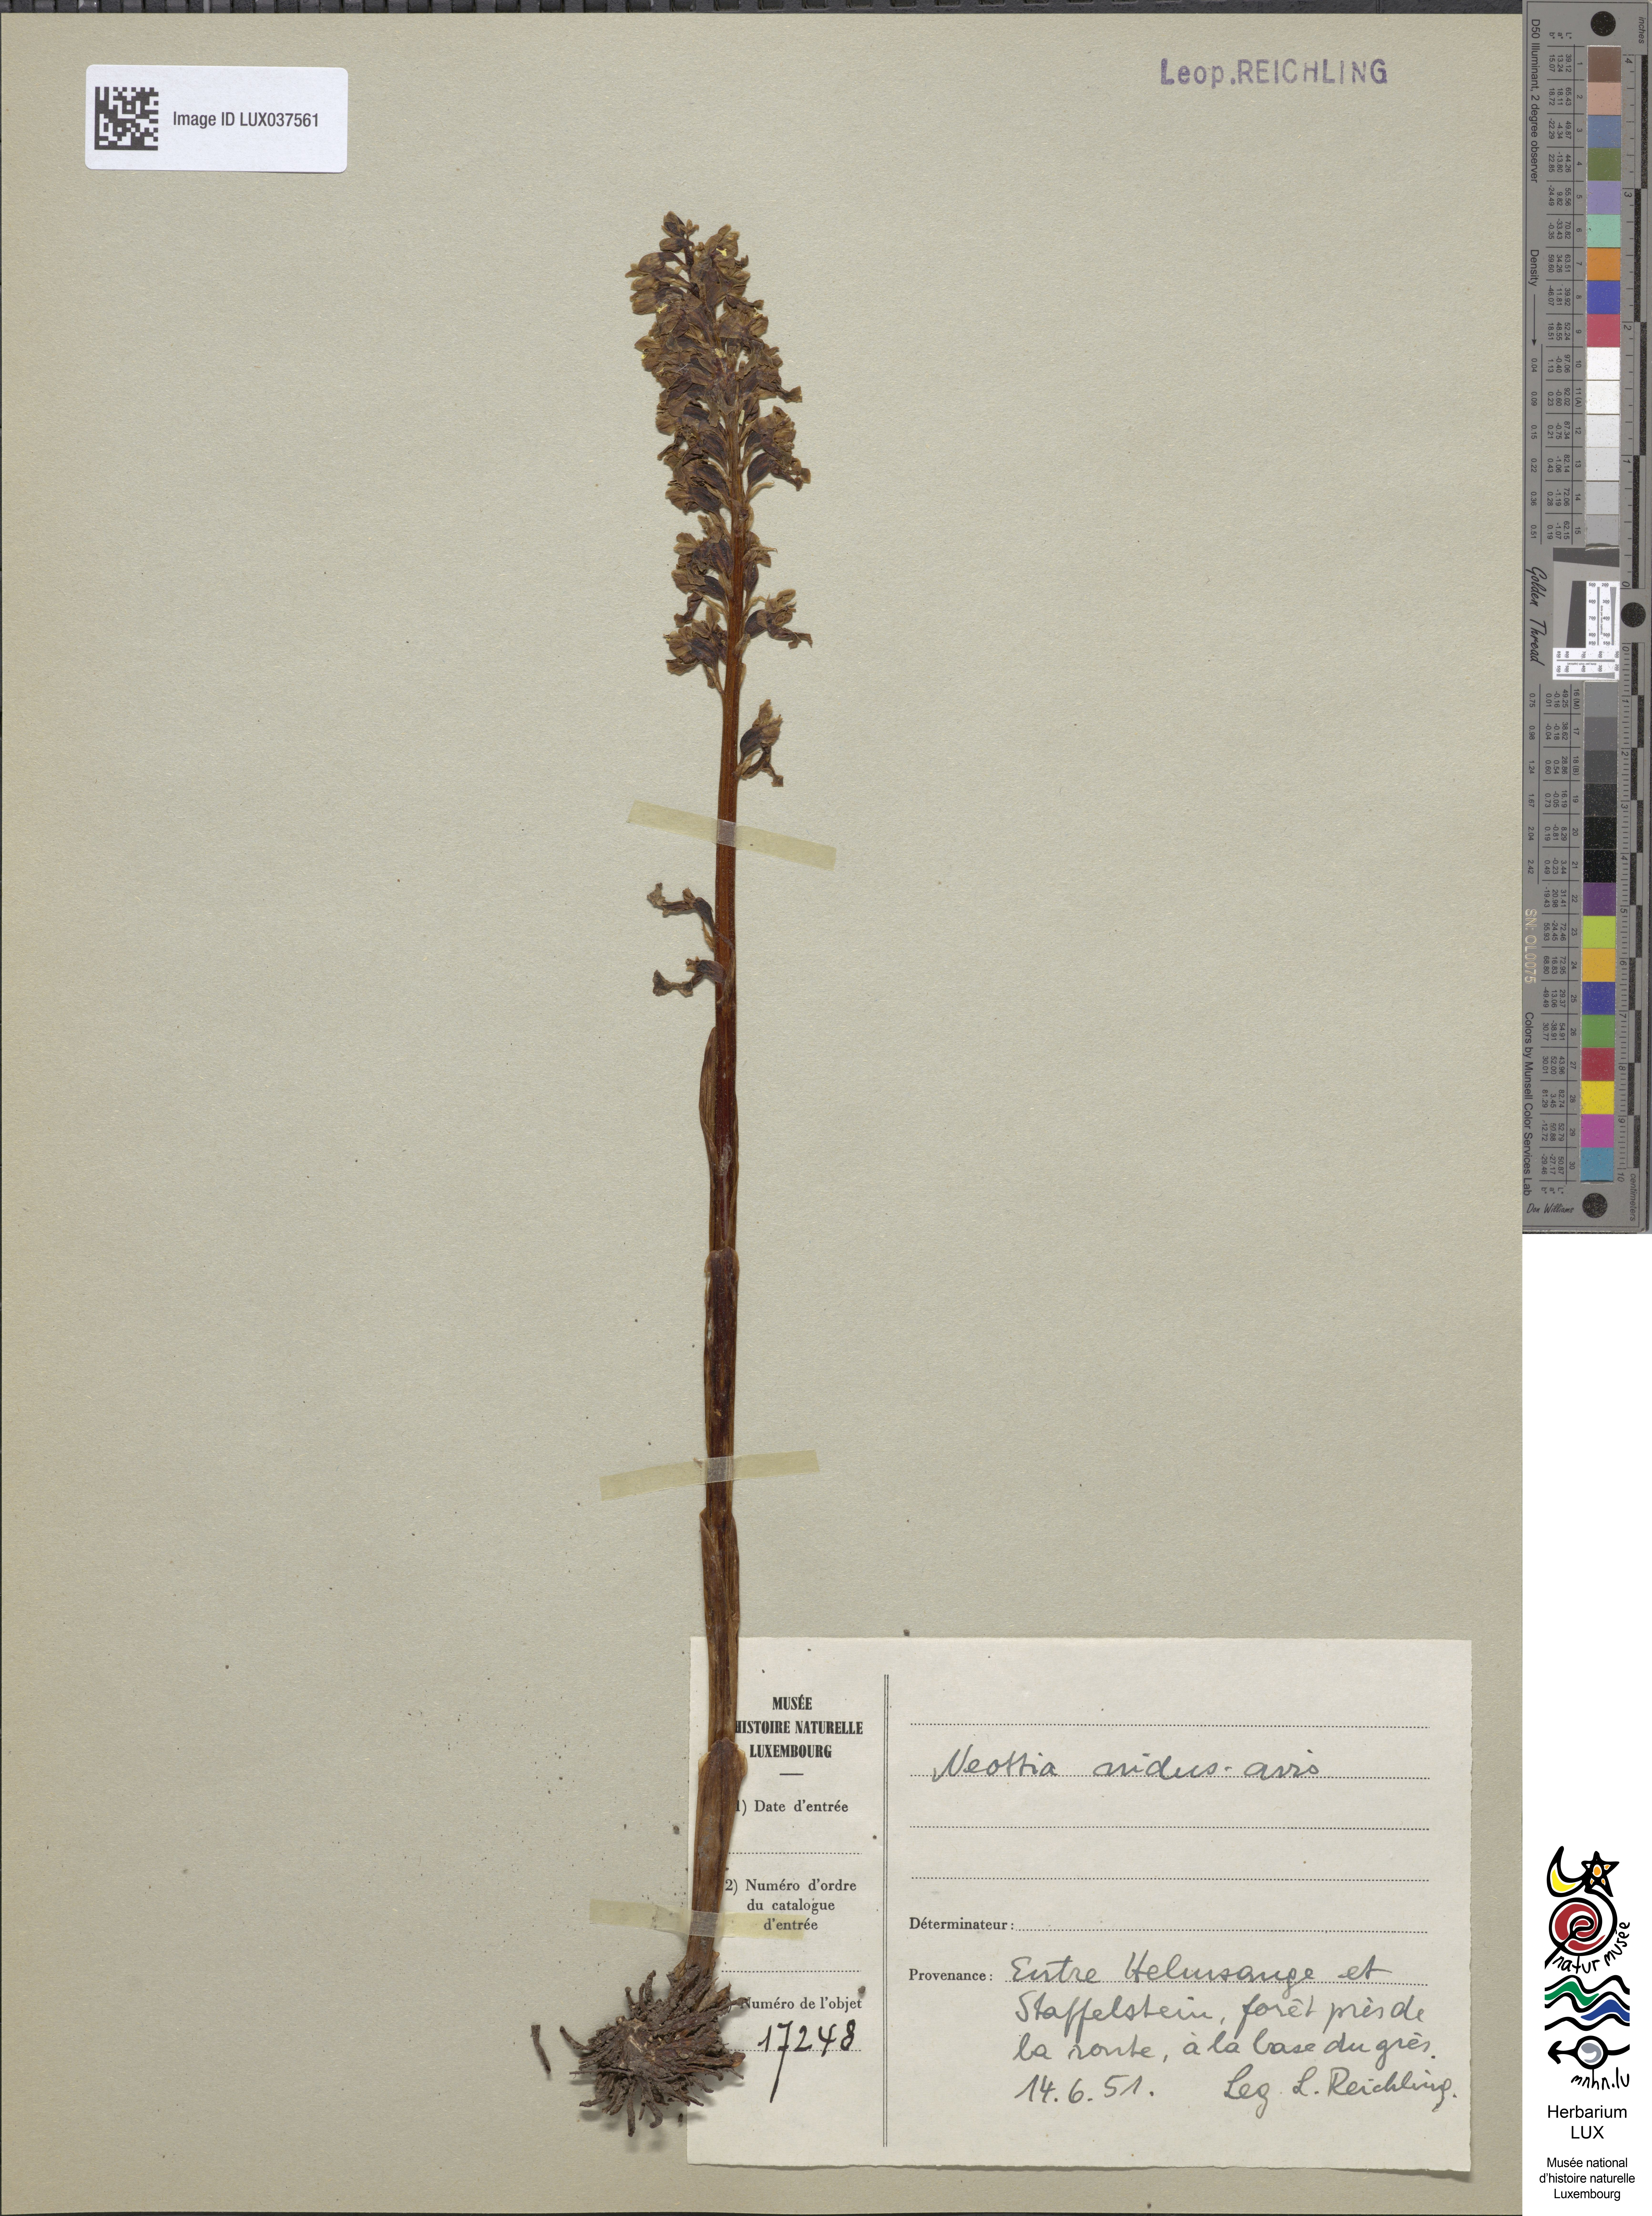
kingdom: Plantae
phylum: Tracheophyta
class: Liliopsida
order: Asparagales
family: Orchidaceae
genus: Neottia
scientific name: Neottia nidus-avis
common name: Bird's-nest orchid
